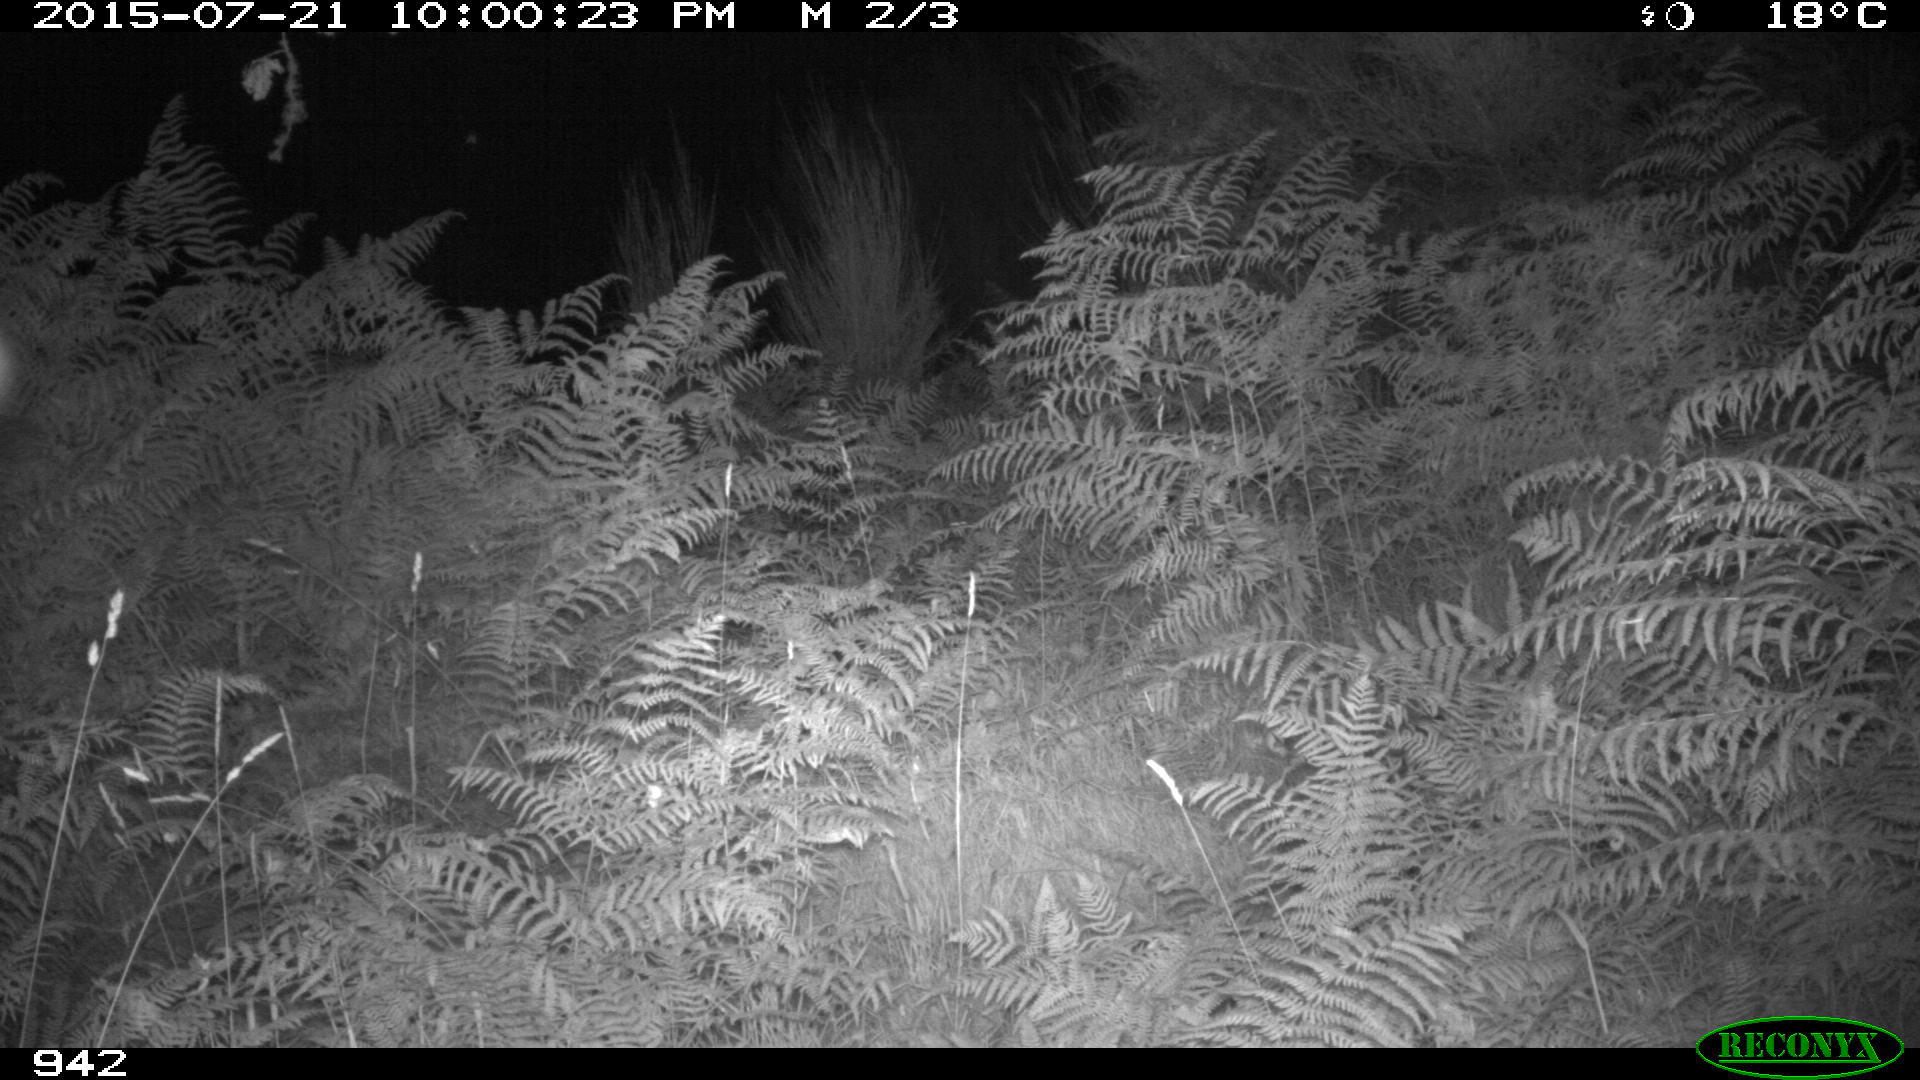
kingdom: Animalia
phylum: Chordata
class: Mammalia
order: Artiodactyla
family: Bovidae
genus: Bos
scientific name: Bos taurus
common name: Domesticated cattle
